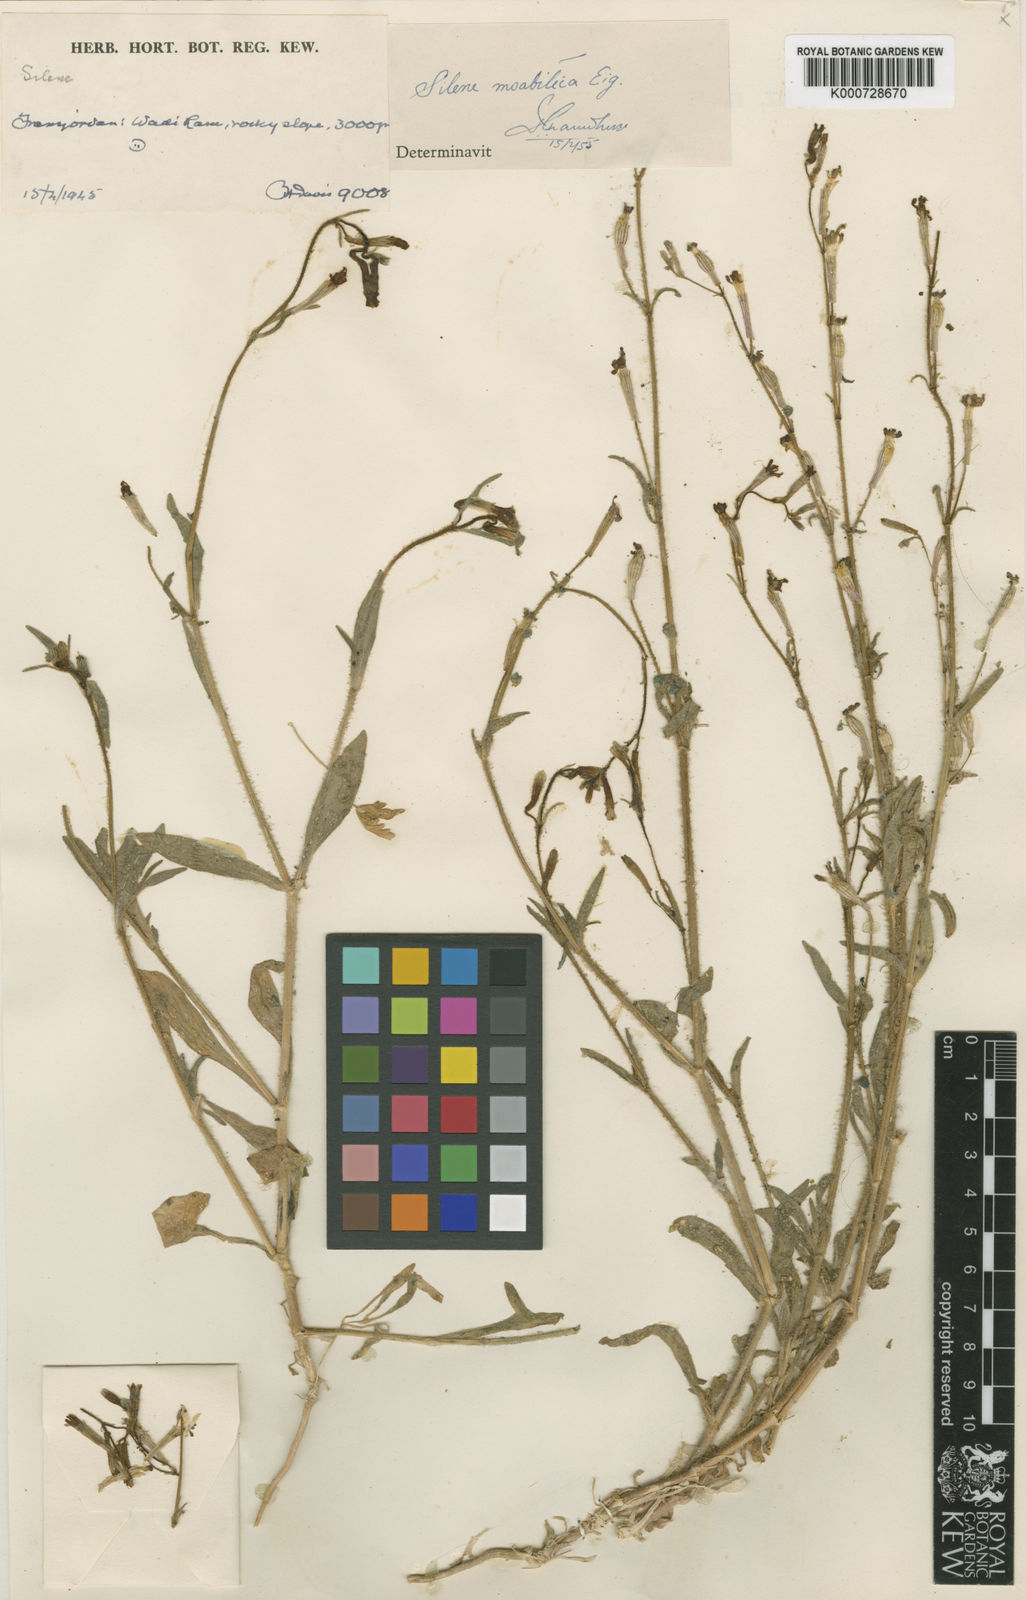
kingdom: Plantae
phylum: Tracheophyta
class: Magnoliopsida
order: Caryophyllales
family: Caryophyllaceae
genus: Silene
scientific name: Silene moabitica
